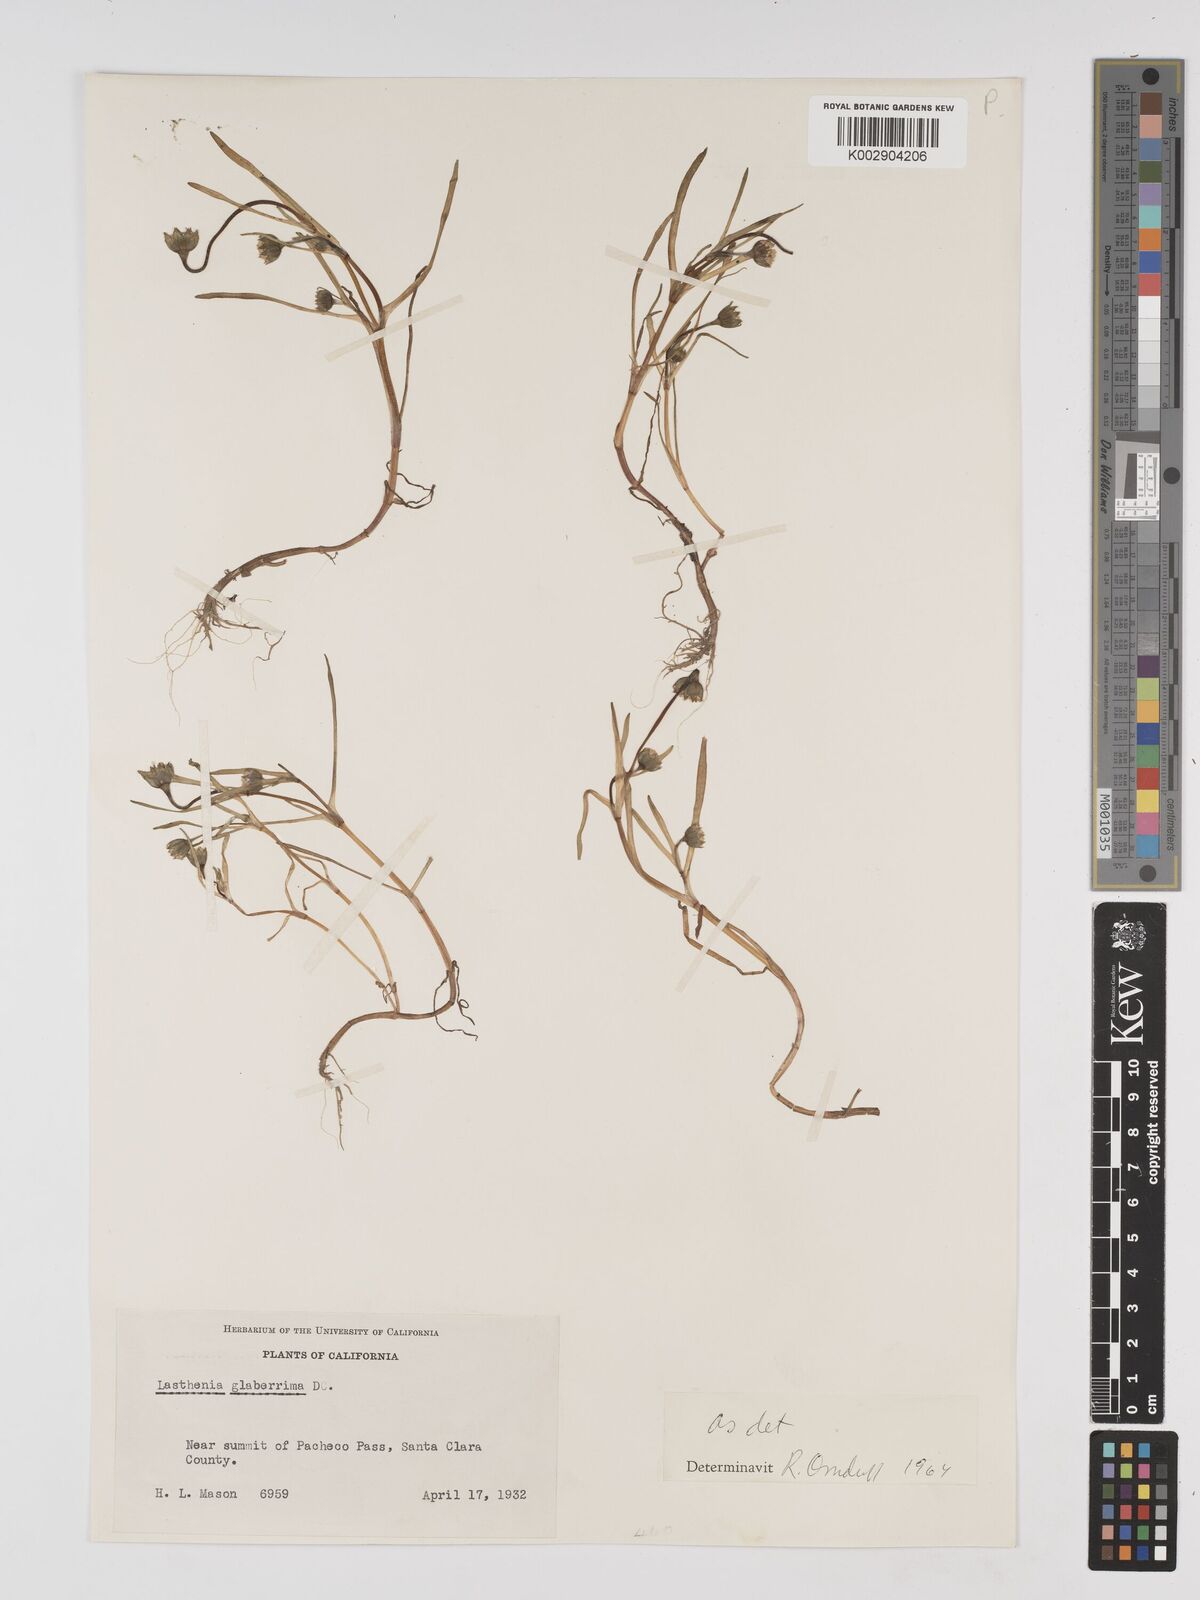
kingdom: Plantae
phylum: Tracheophyta
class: Magnoliopsida
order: Asterales
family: Asteraceae
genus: Lasthenia
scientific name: Lasthenia glaberrima
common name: Smooth goldfields
